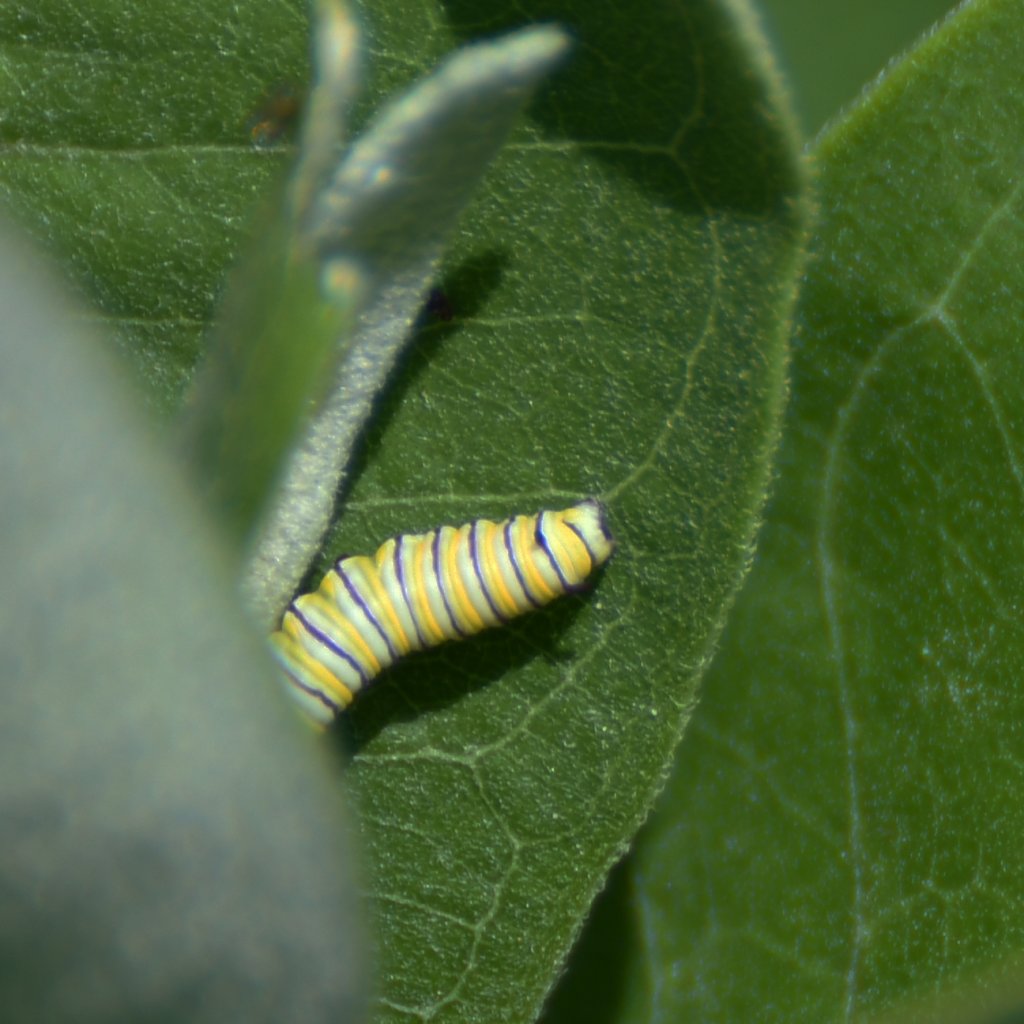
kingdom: Animalia
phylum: Arthropoda
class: Insecta
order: Lepidoptera
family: Nymphalidae
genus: Danaus
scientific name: Danaus plexippus
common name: Monarch
